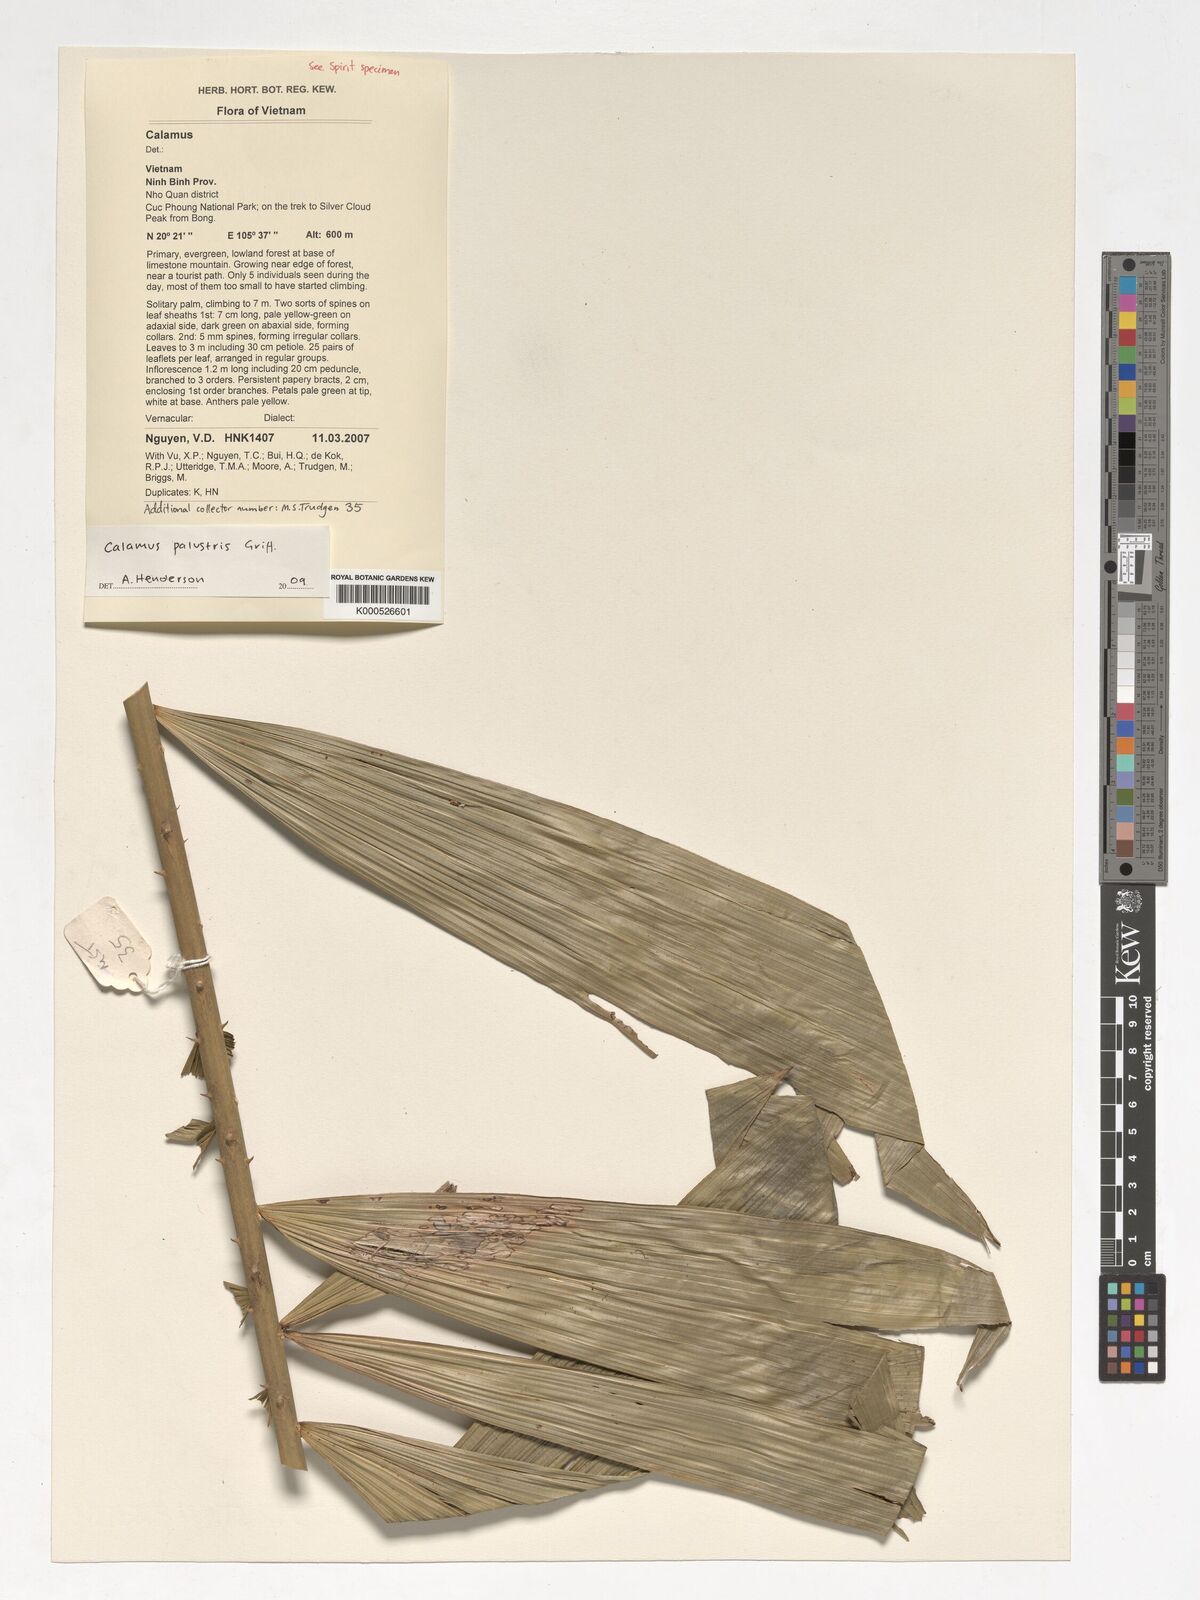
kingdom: Plantae
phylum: Tracheophyta
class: Liliopsida
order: Arecales
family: Arecaceae
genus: Calamus
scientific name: Calamus latifolius
